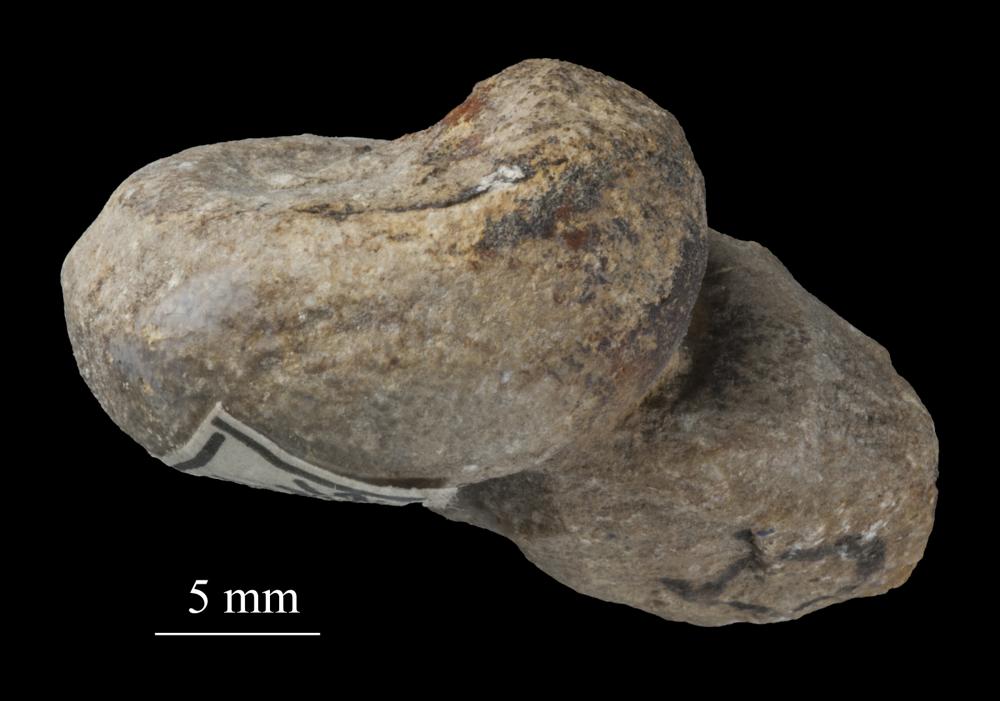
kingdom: Animalia
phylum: Mollusca
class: Gastropoda
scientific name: Gastropoda
